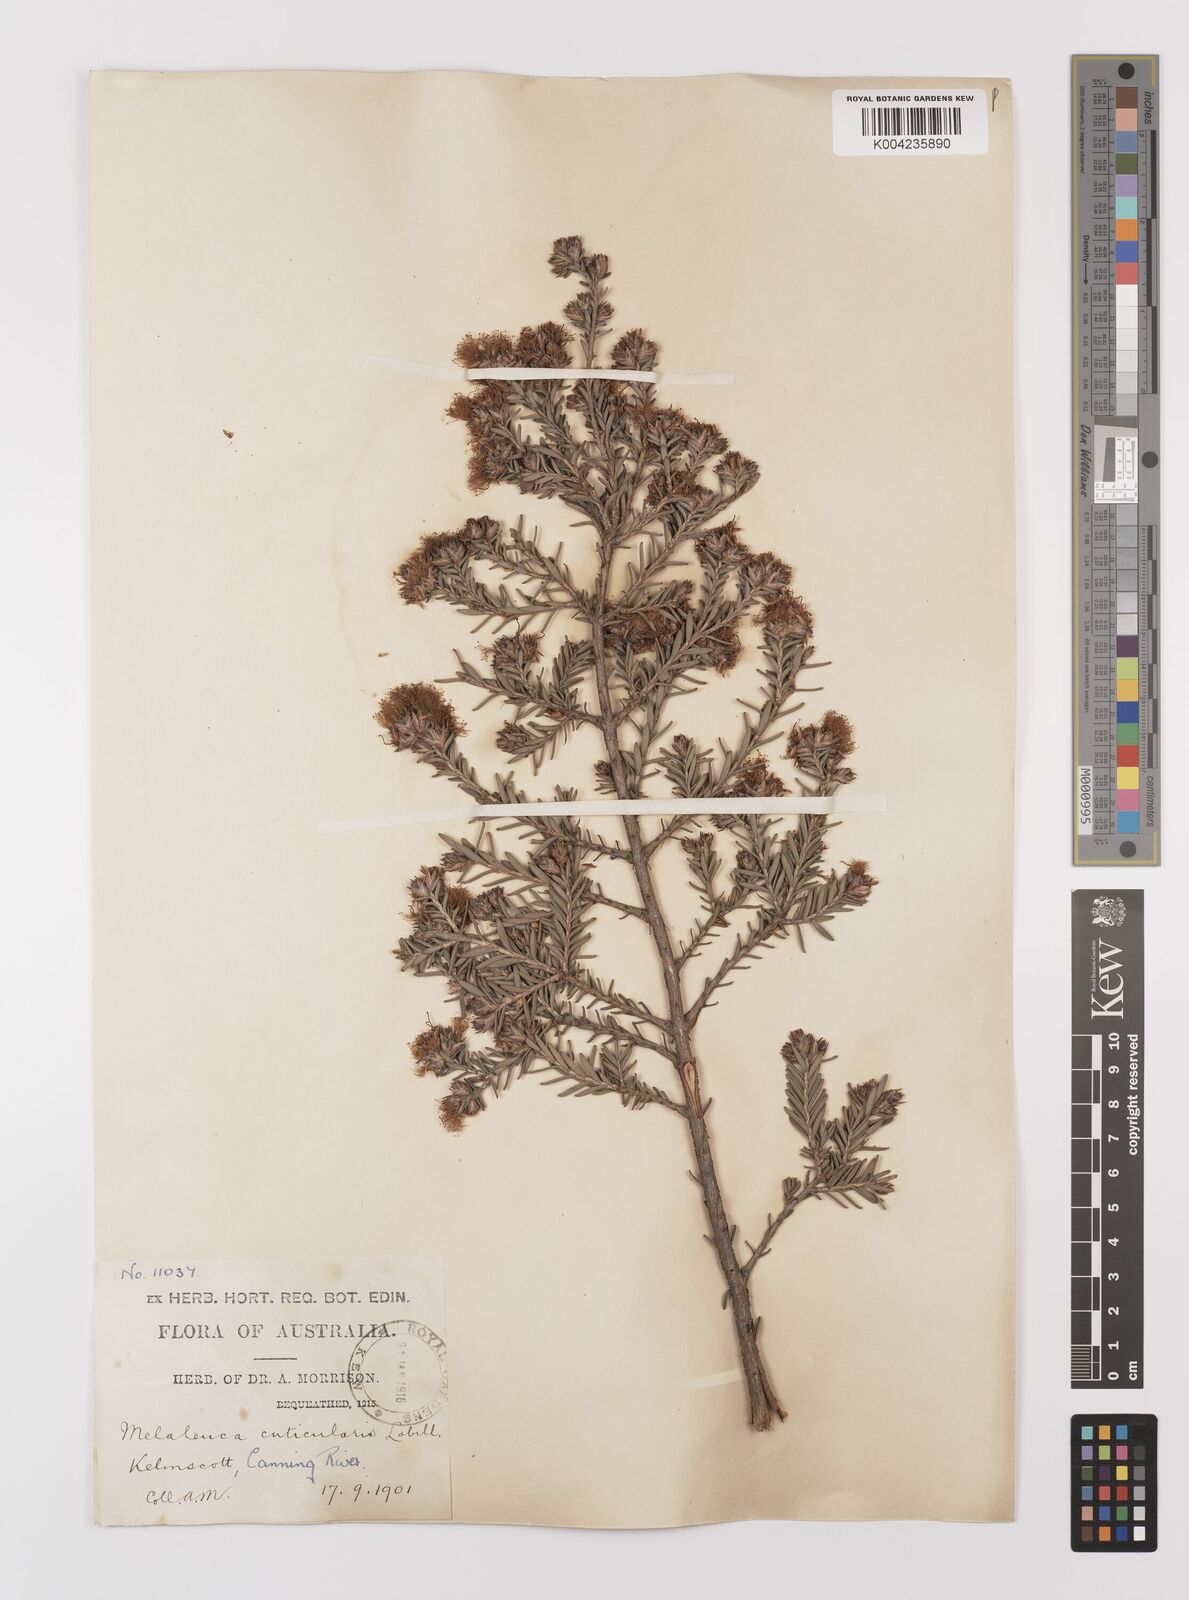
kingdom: Plantae
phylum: Tracheophyta
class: Magnoliopsida
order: Myrtales
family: Myrtaceae
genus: Melaleuca
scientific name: Melaleuca cuticularis
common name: Saltwater paperbark
